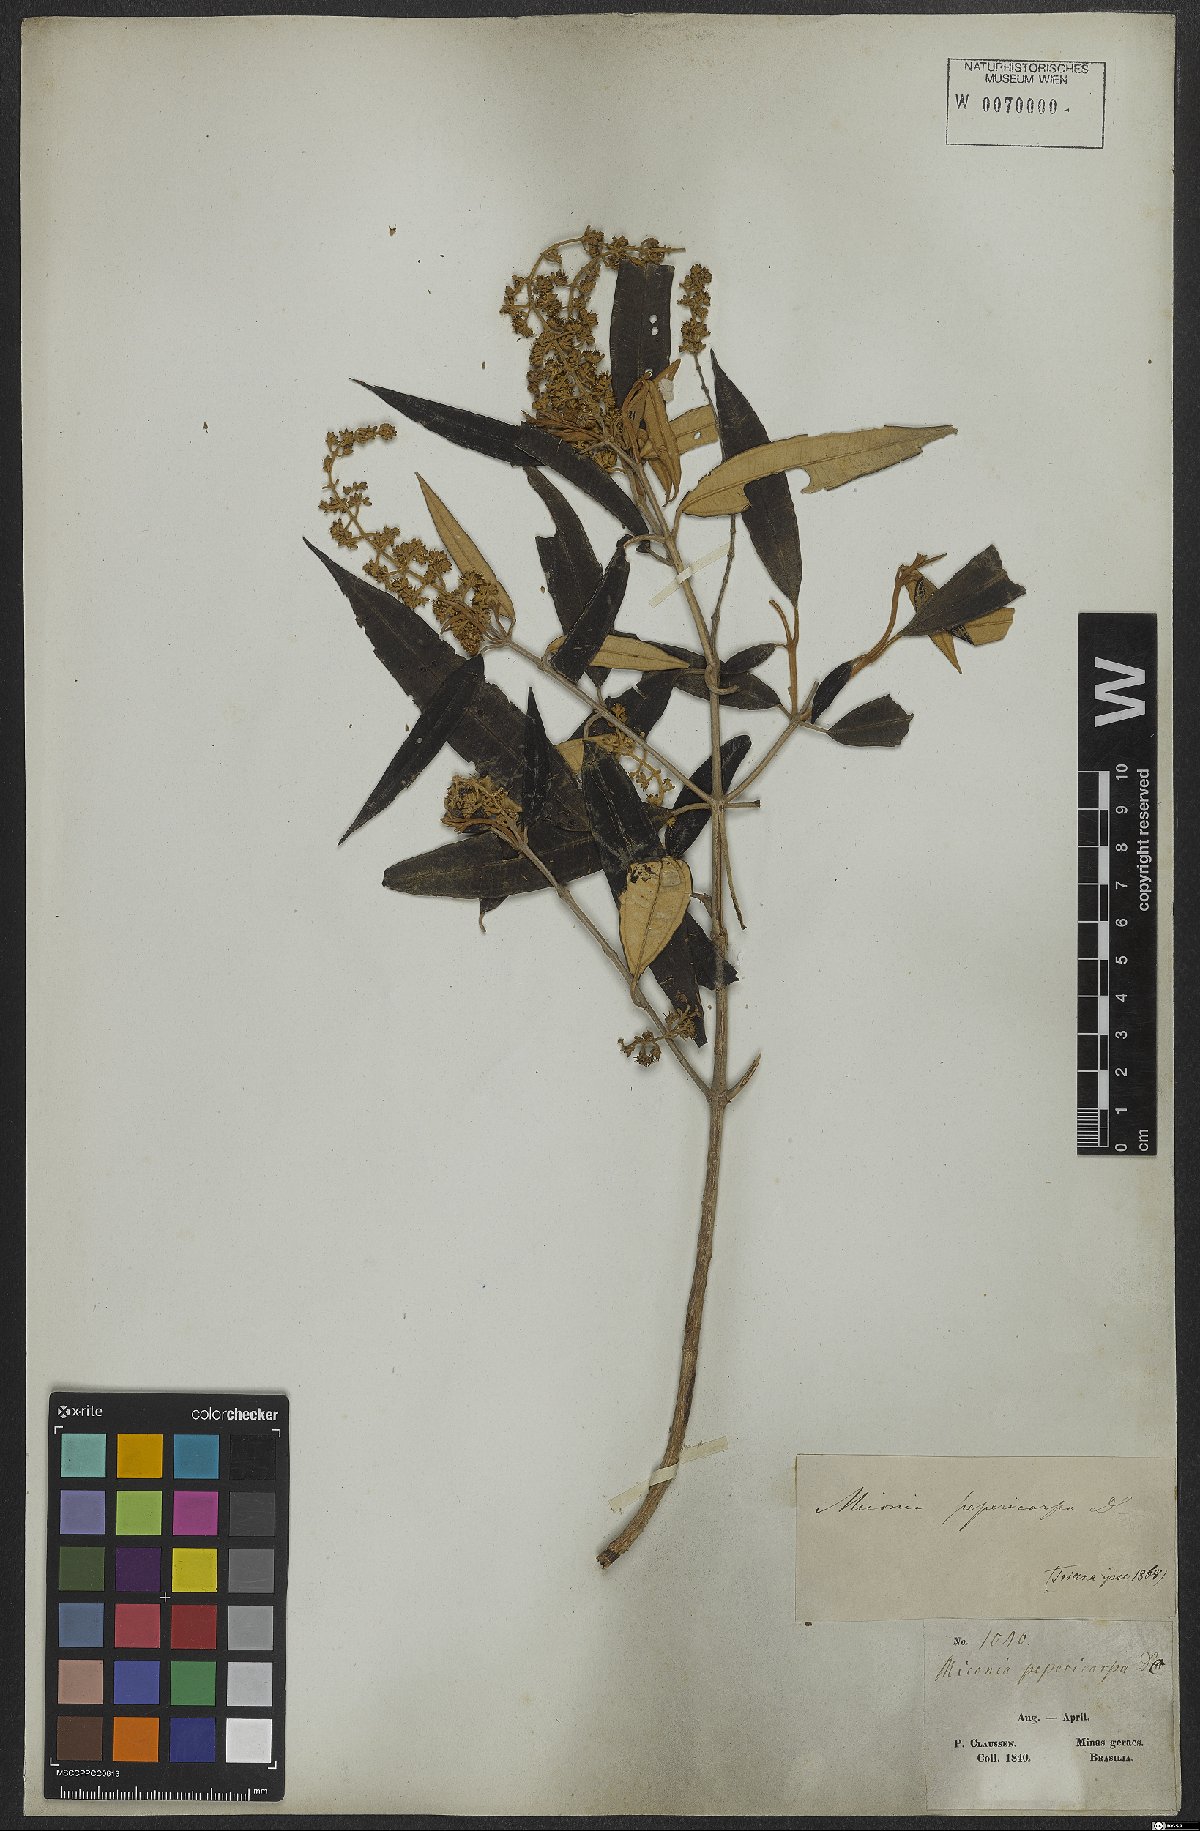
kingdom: Plantae
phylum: Tracheophyta
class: Magnoliopsida
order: Myrtales
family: Melastomataceae
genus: Miconia
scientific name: Miconia pepericarpa
